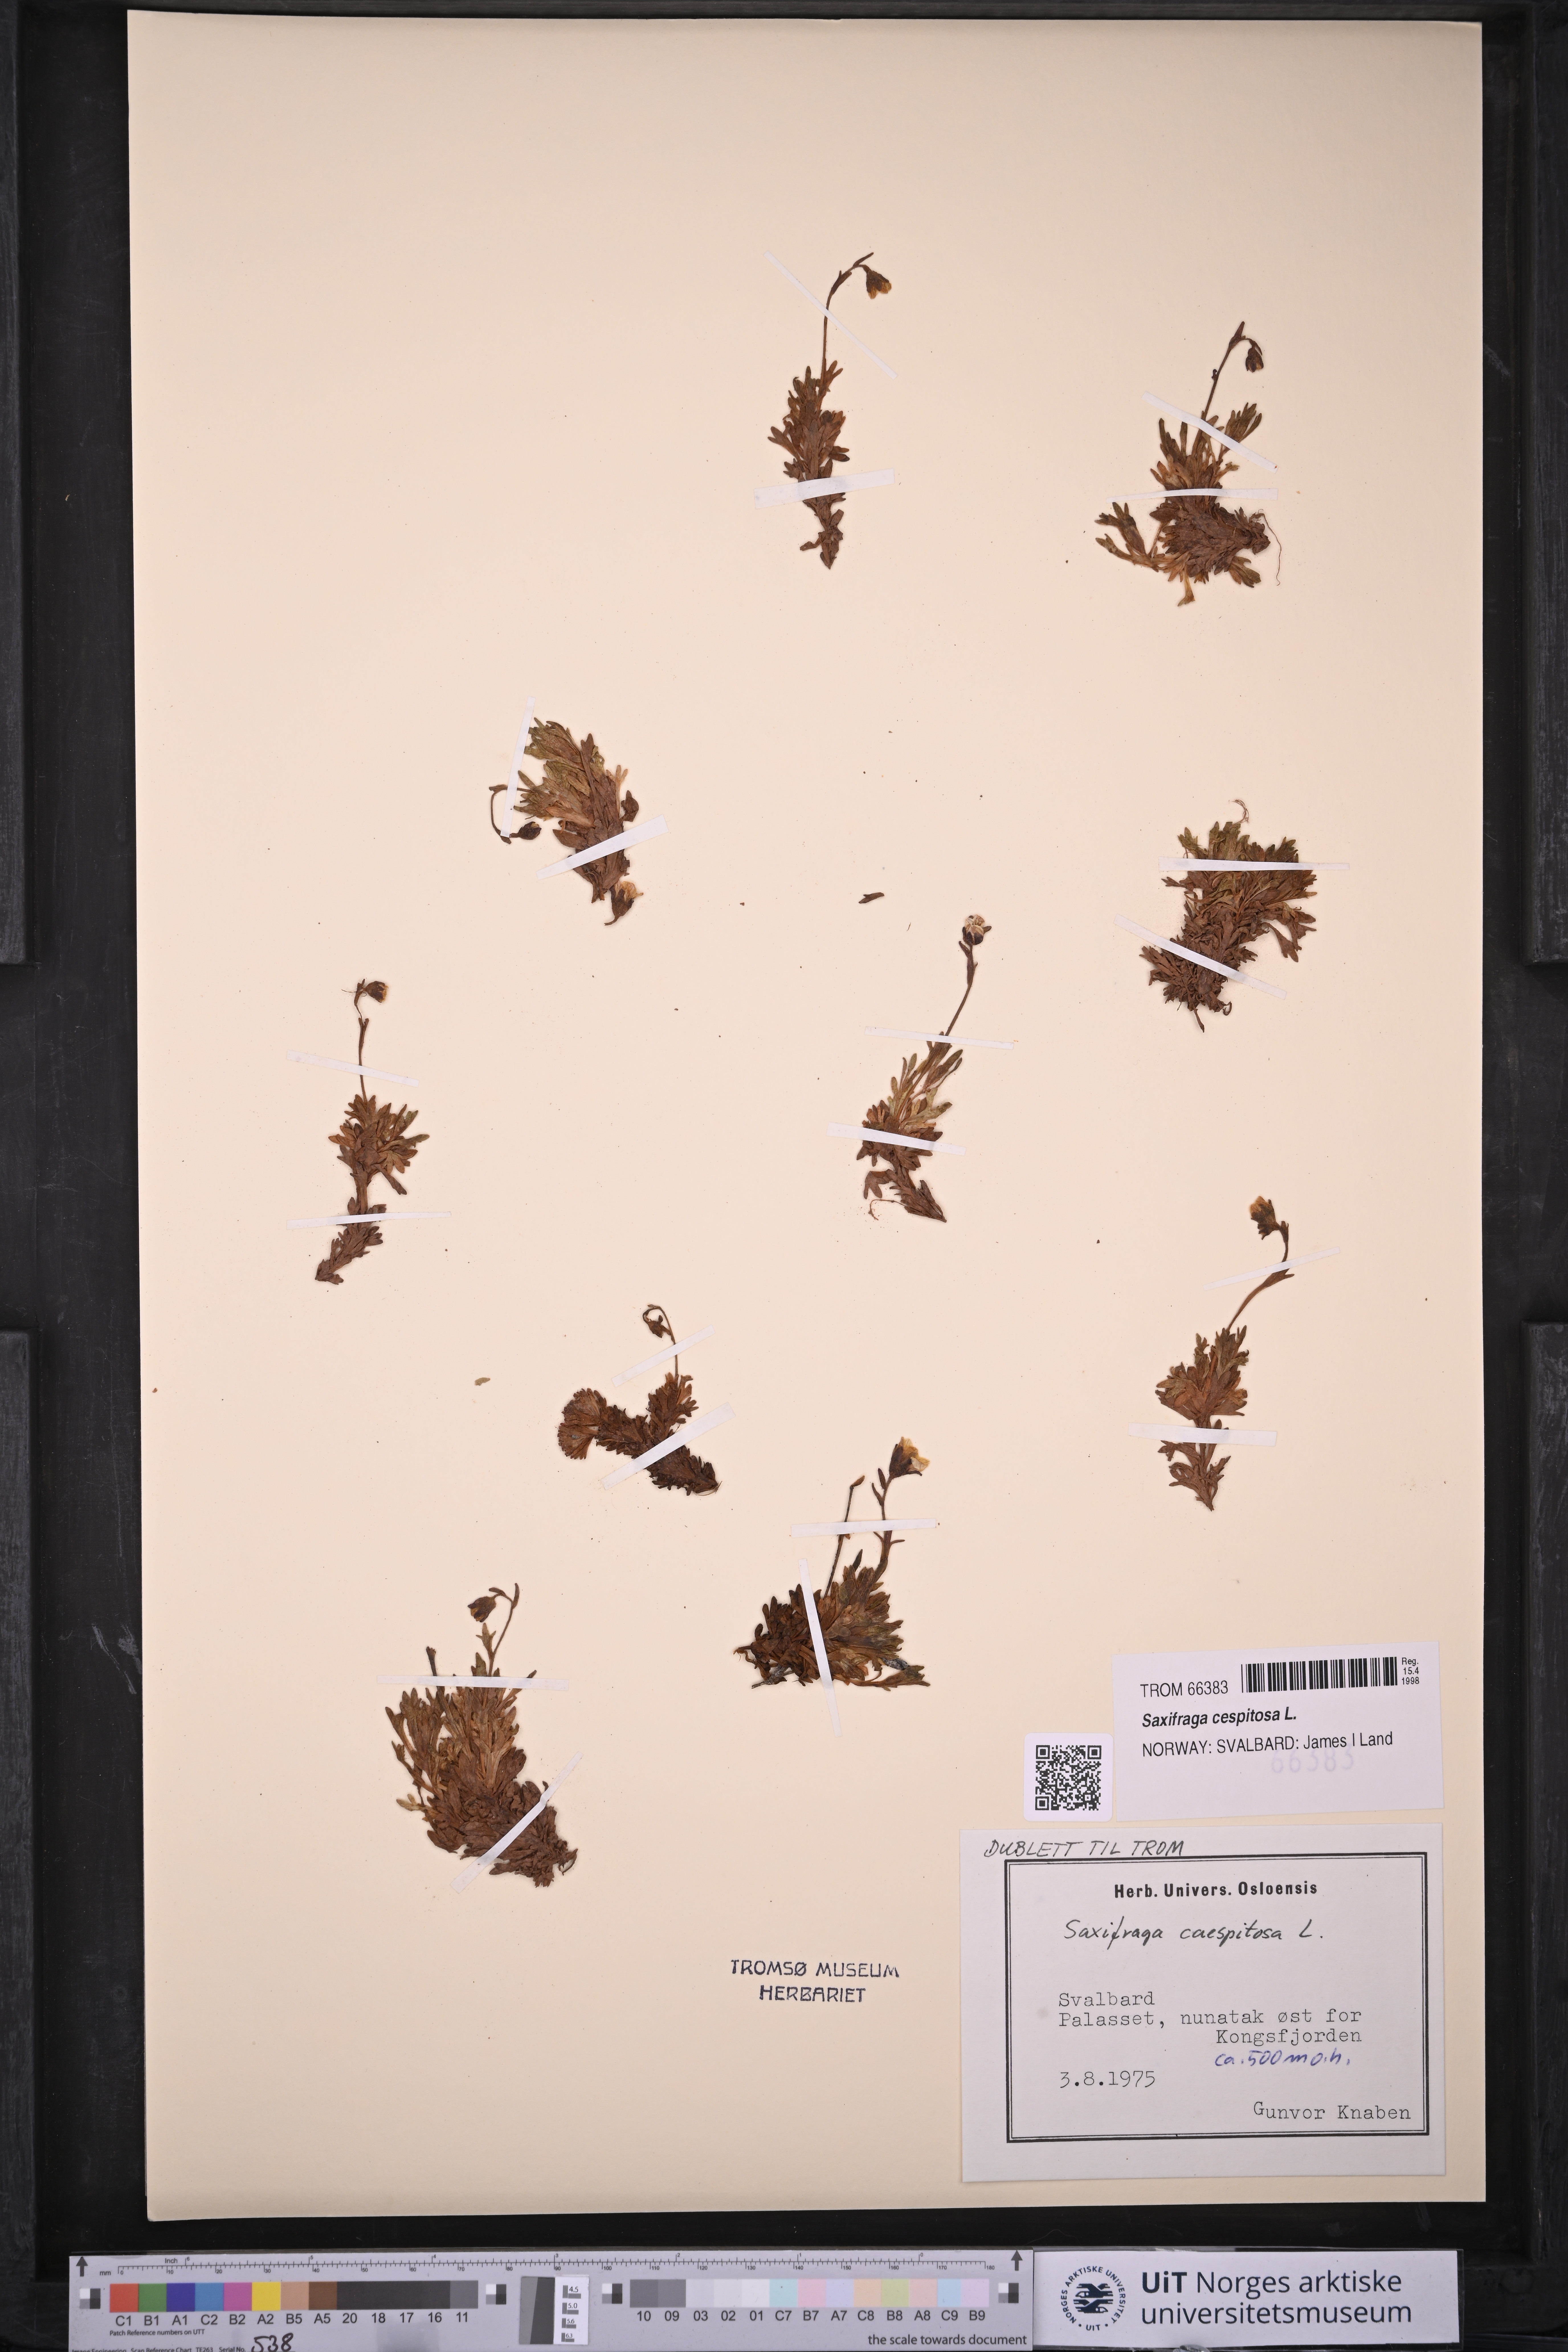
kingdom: Plantae
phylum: Tracheophyta
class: Magnoliopsida
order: Saxifragales
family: Saxifragaceae
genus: Saxifraga
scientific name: Saxifraga cespitosa
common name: Tufted saxifrage
